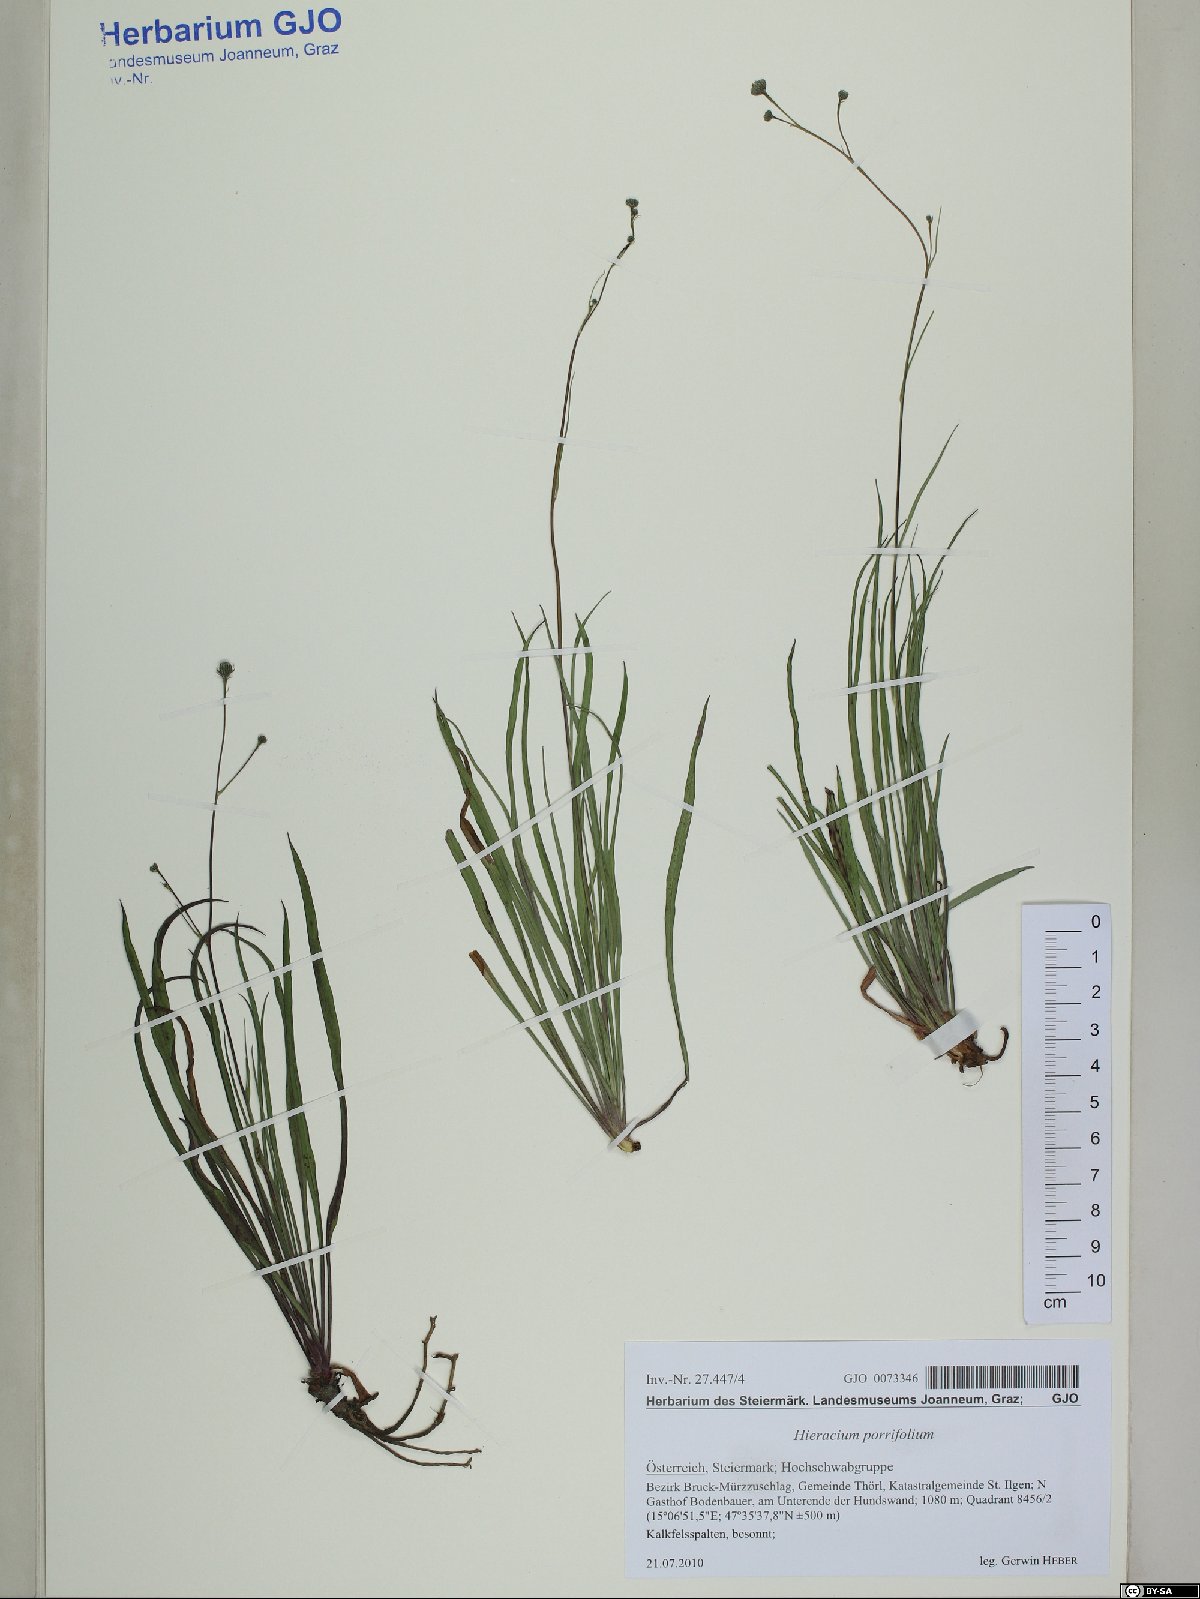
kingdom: Plantae
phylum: Tracheophyta
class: Magnoliopsida
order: Asterales
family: Asteraceae
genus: Hieracium
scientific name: Hieracium porrifolium
